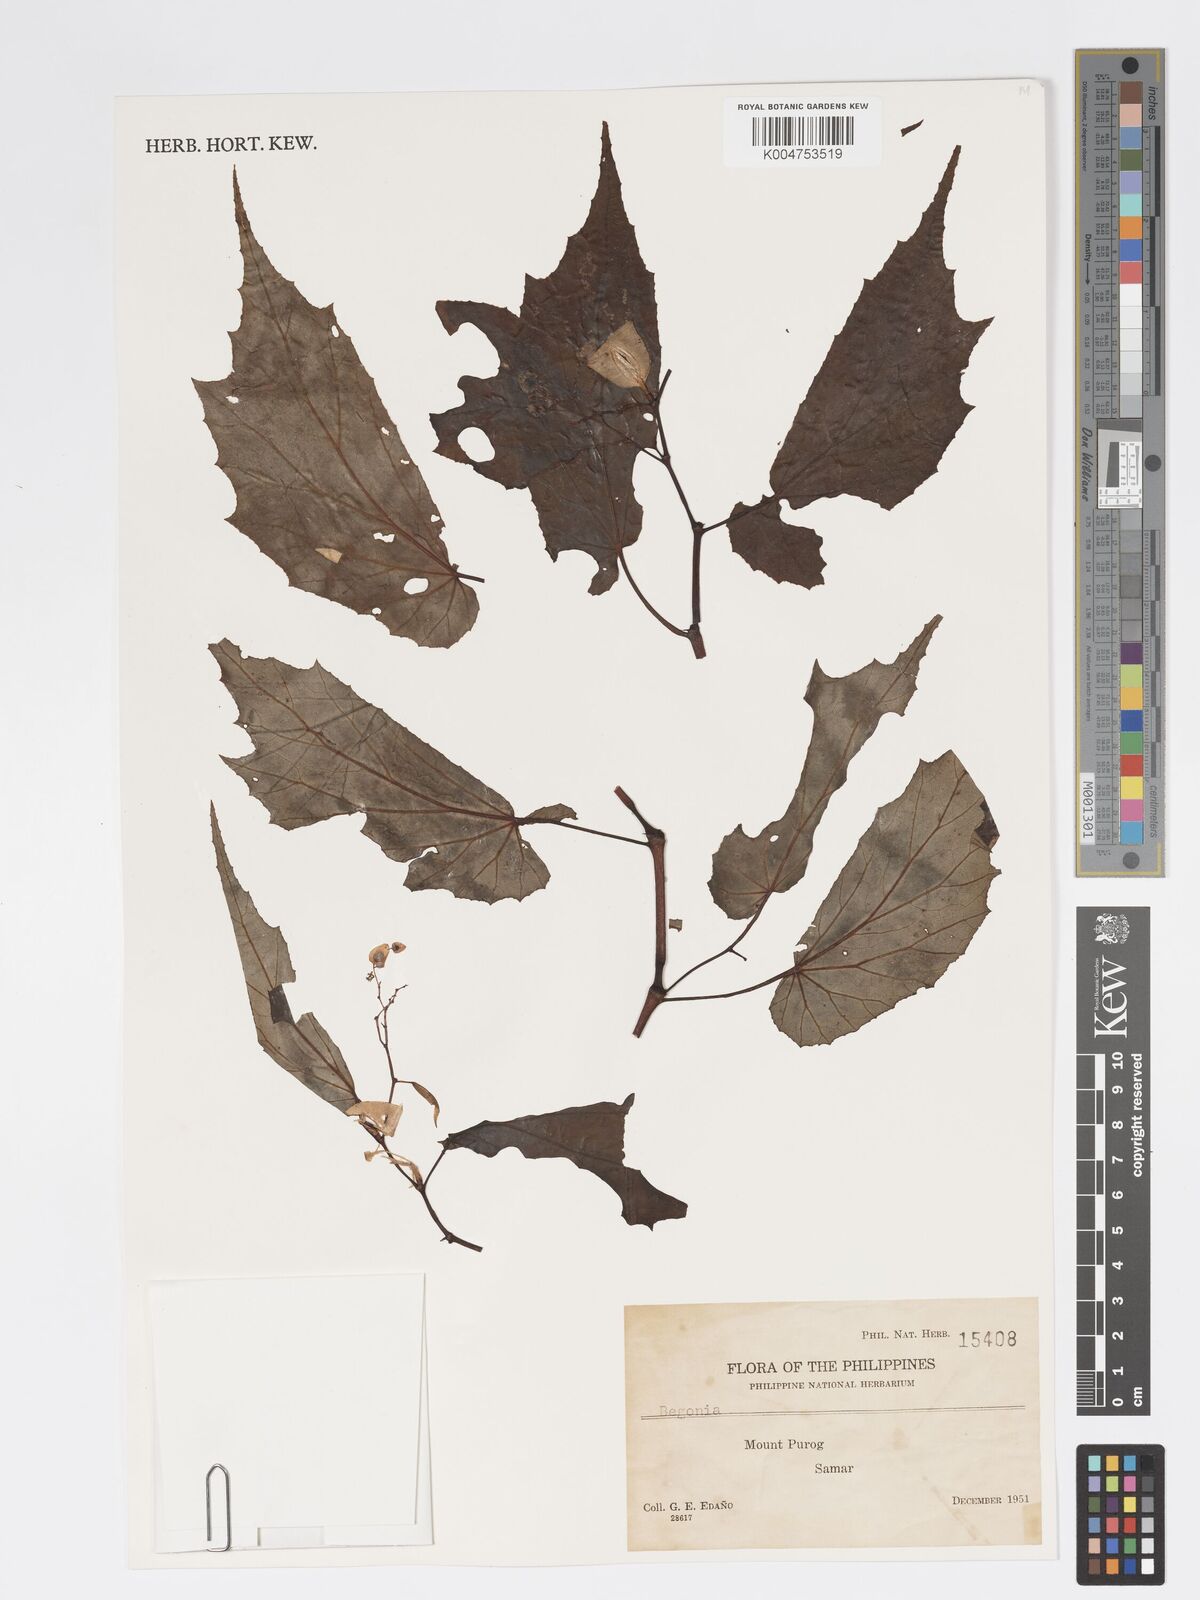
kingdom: Plantae
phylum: Tracheophyta
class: Magnoliopsida
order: Cucurbitales
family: Begoniaceae
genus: Begonia
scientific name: Begonia
